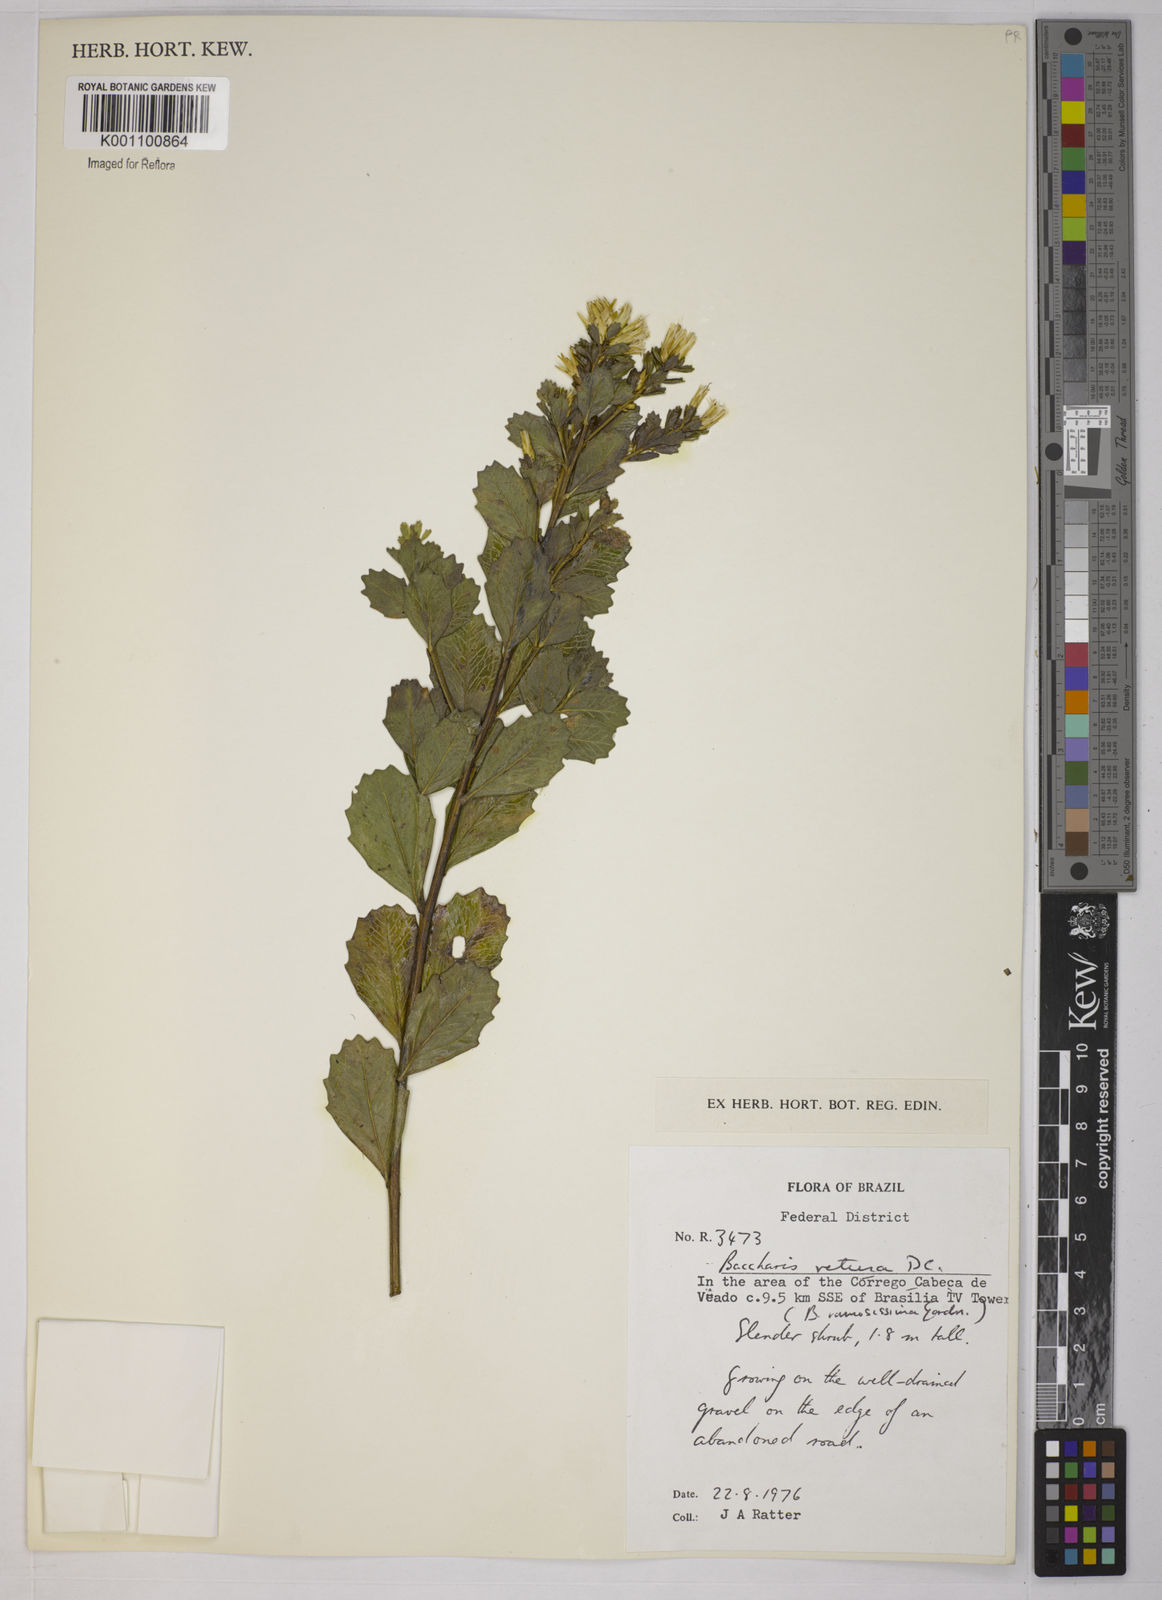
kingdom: Plantae
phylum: Tracheophyta
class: Magnoliopsida
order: Asterales
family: Asteraceae
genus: Baccharis
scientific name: Baccharis retusa
